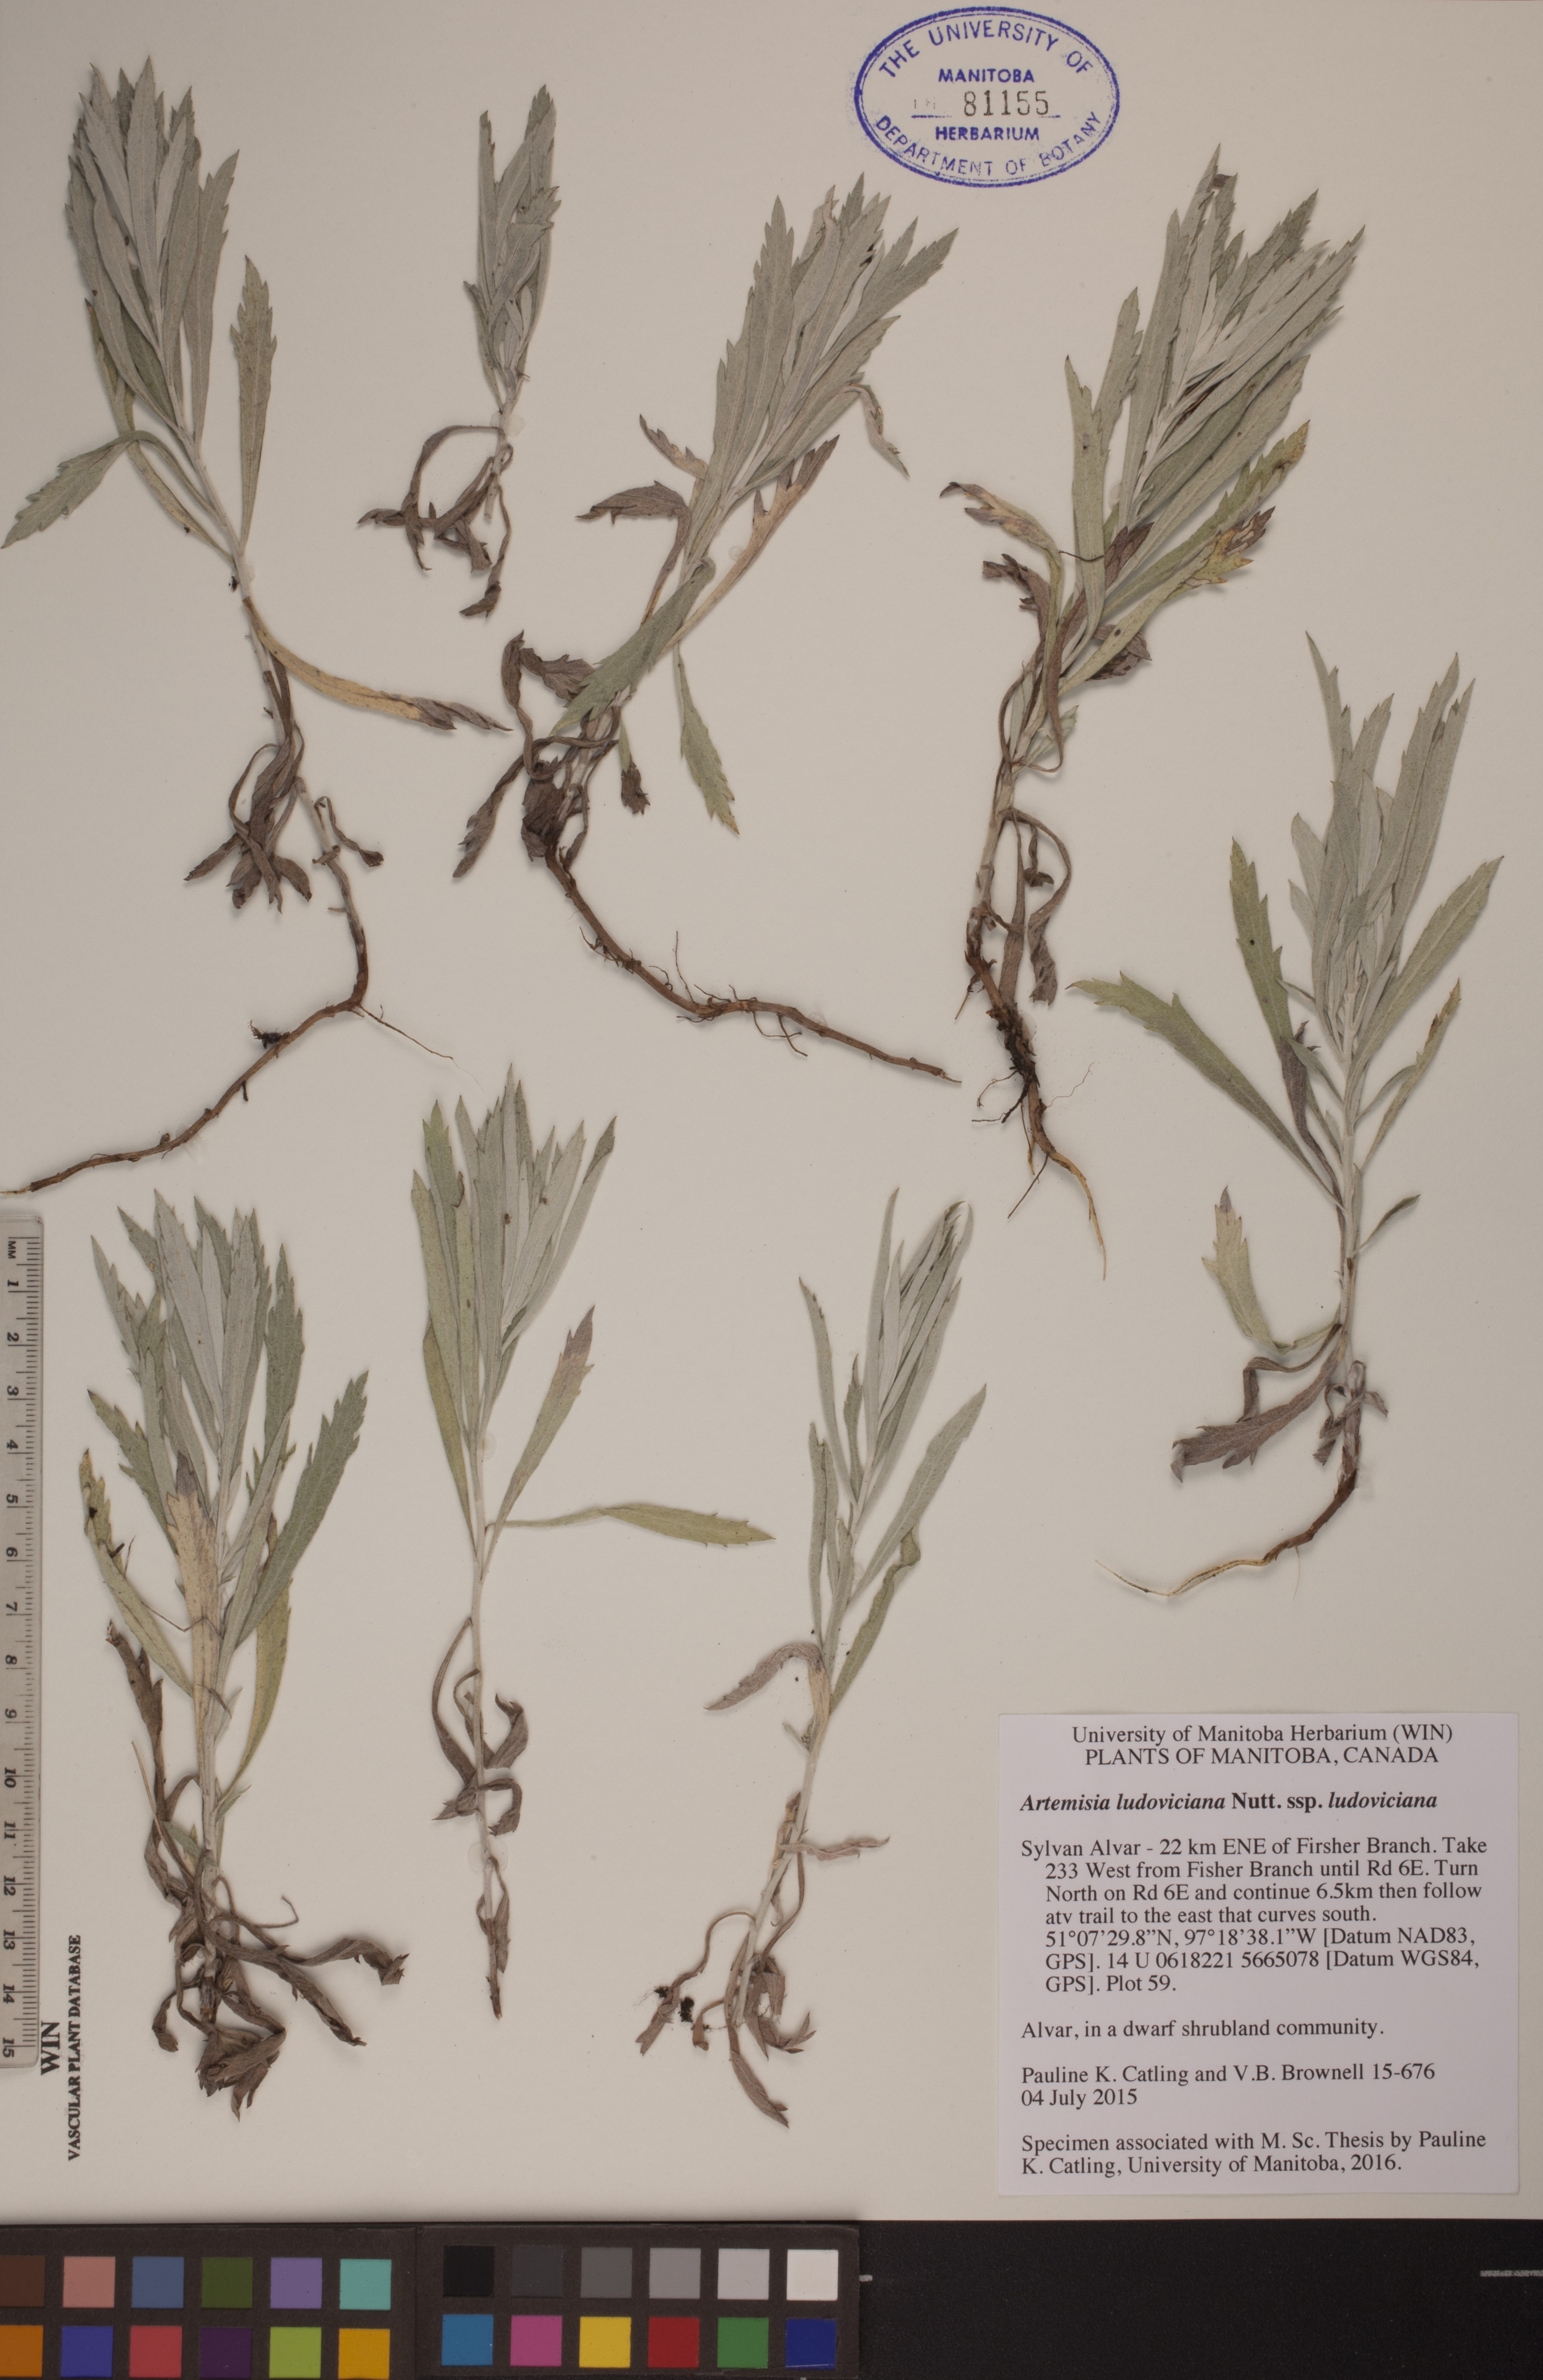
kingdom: Plantae
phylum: Tracheophyta
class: Magnoliopsida
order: Asterales
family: Asteraceae
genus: Artemisia
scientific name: Artemisia ludoviciana
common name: Western mugwort
